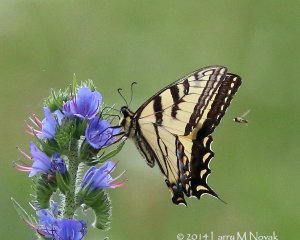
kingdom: Animalia
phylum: Arthropoda
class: Insecta
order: Lepidoptera
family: Papilionidae
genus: Pterourus
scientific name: Pterourus glaucus
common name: Eastern Tiger Swallowtail
